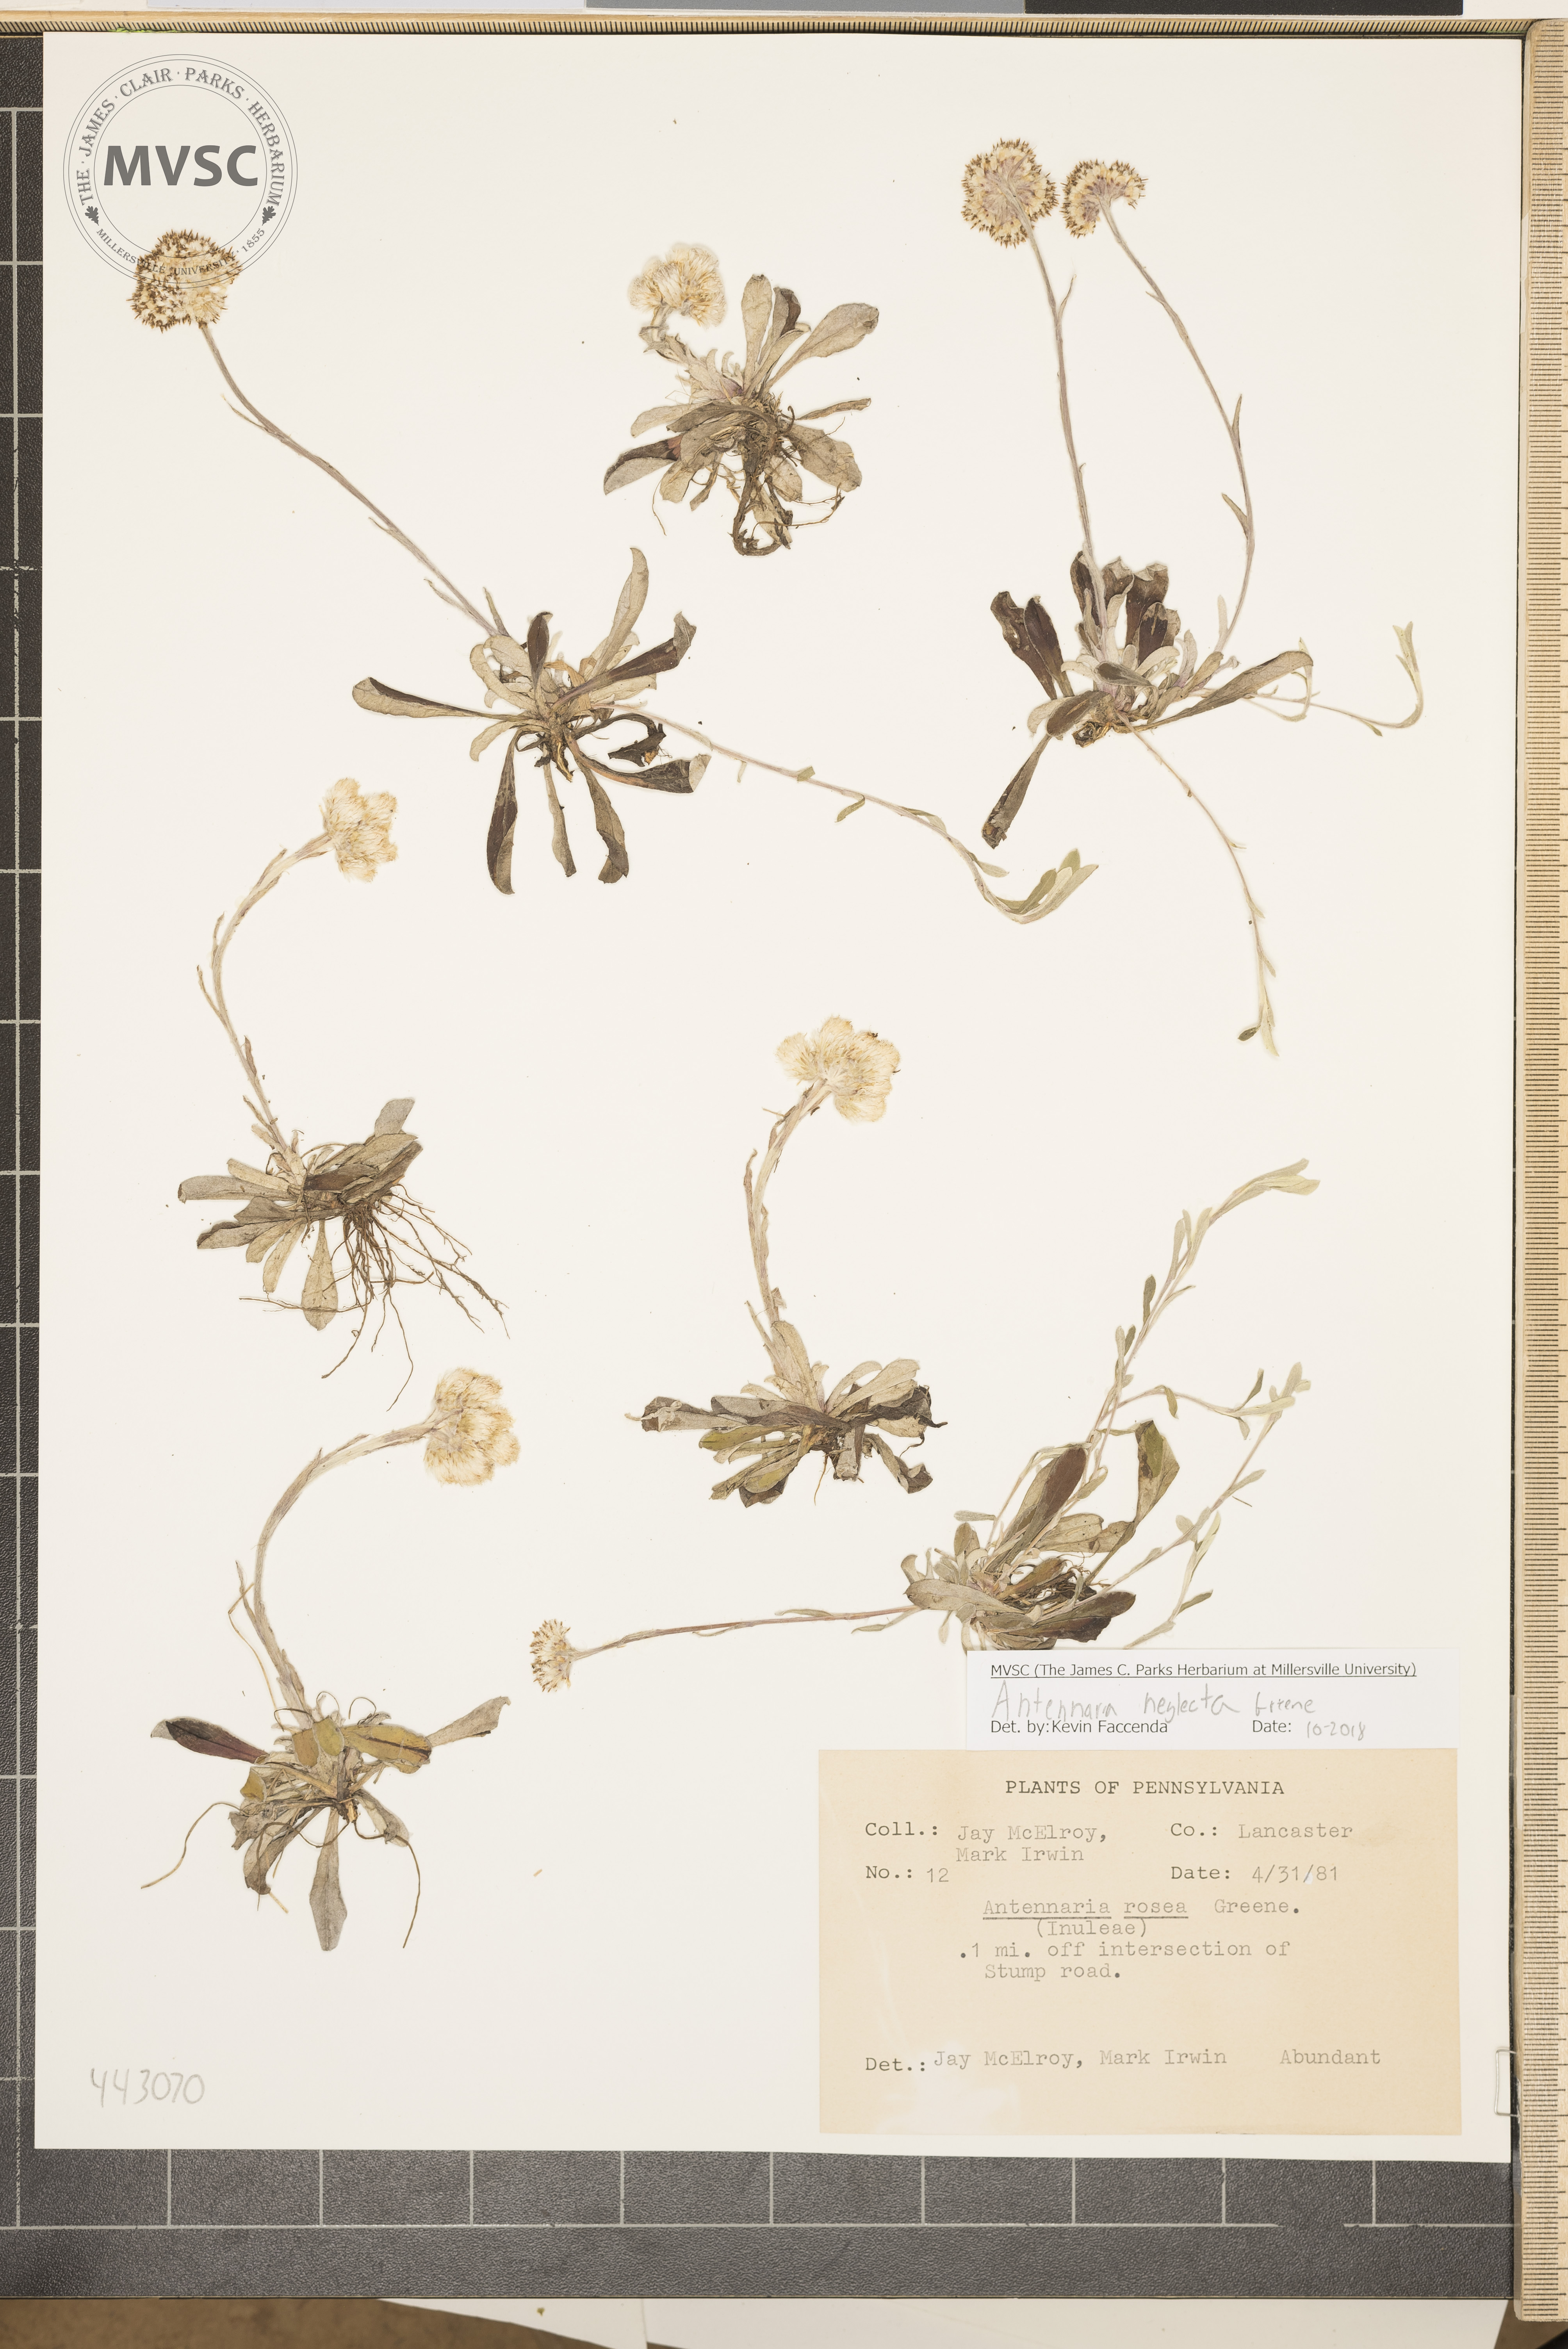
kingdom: Plantae
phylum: Tracheophyta
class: Magnoliopsida
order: Asterales
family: Asteraceae
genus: Antennaria
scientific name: Antennaria neglecta
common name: Field pussytoes
